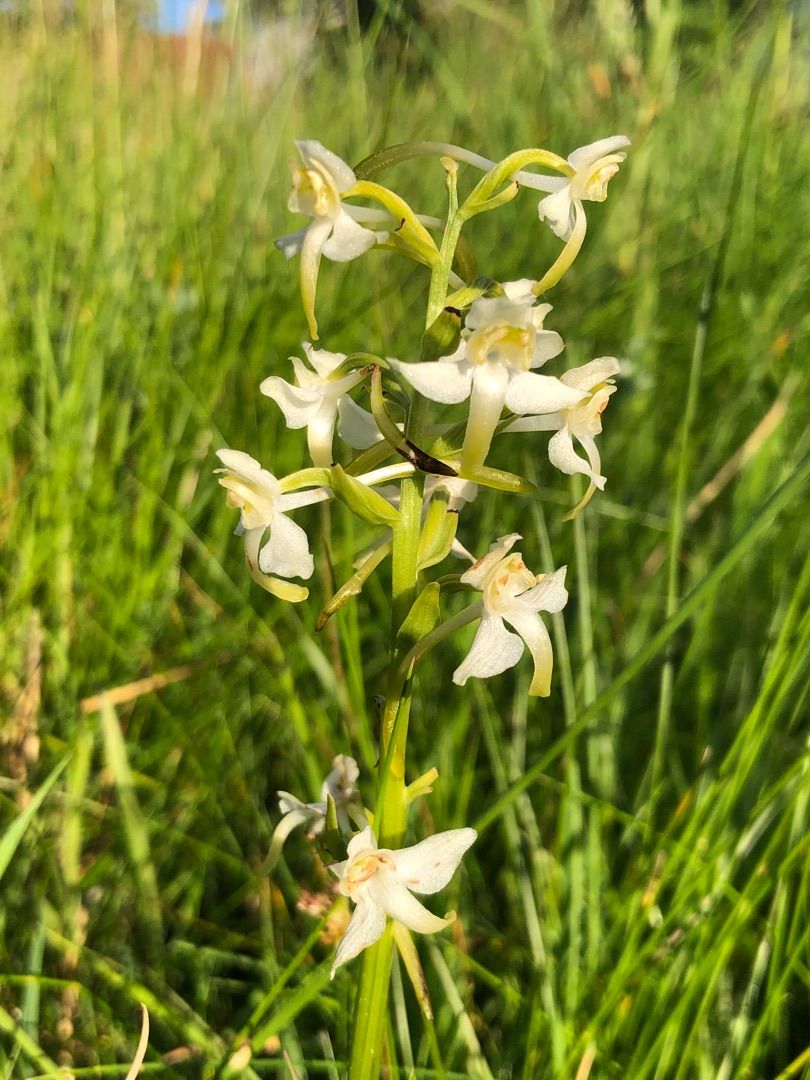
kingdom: Plantae
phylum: Tracheophyta
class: Liliopsida
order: Asparagales
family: Orchidaceae
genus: Platanthera
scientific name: Platanthera chlorantha
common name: Skov-gøgelilje
